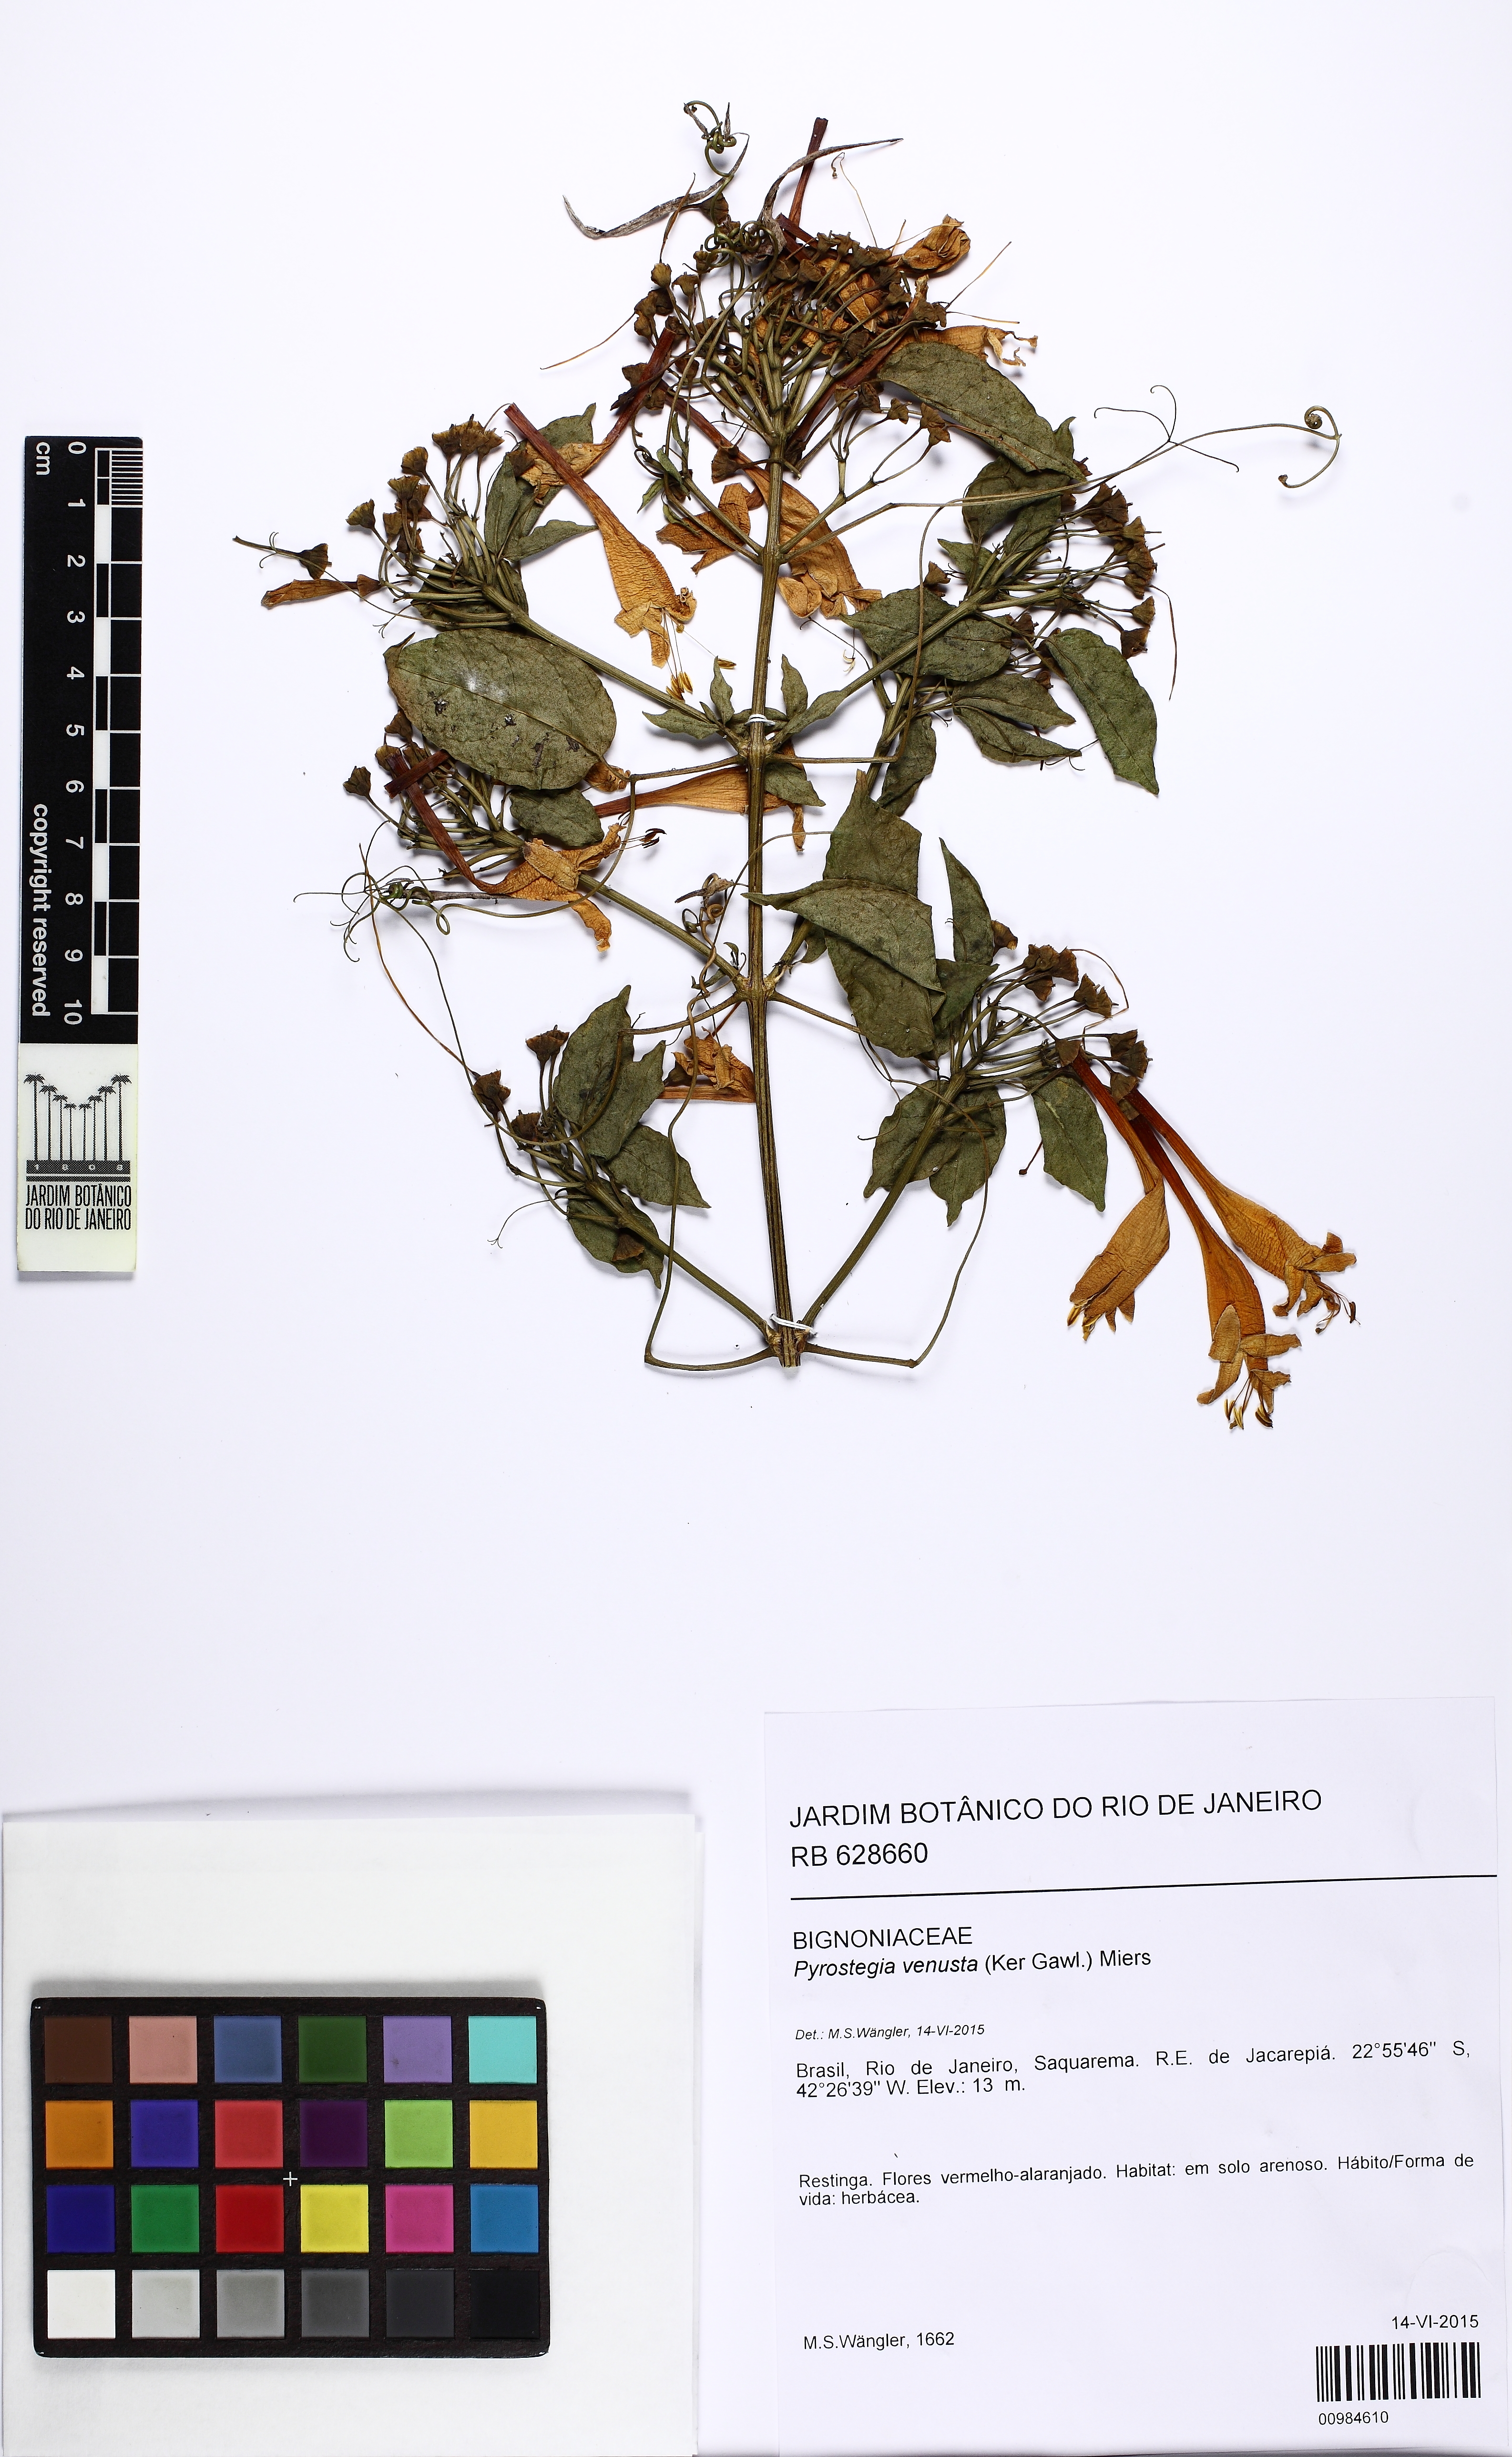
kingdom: Plantae
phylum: Tracheophyta
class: Magnoliopsida
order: Lamiales
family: Bignoniaceae
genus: Pyrostegia
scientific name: Pyrostegia venusta
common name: Flamevine
